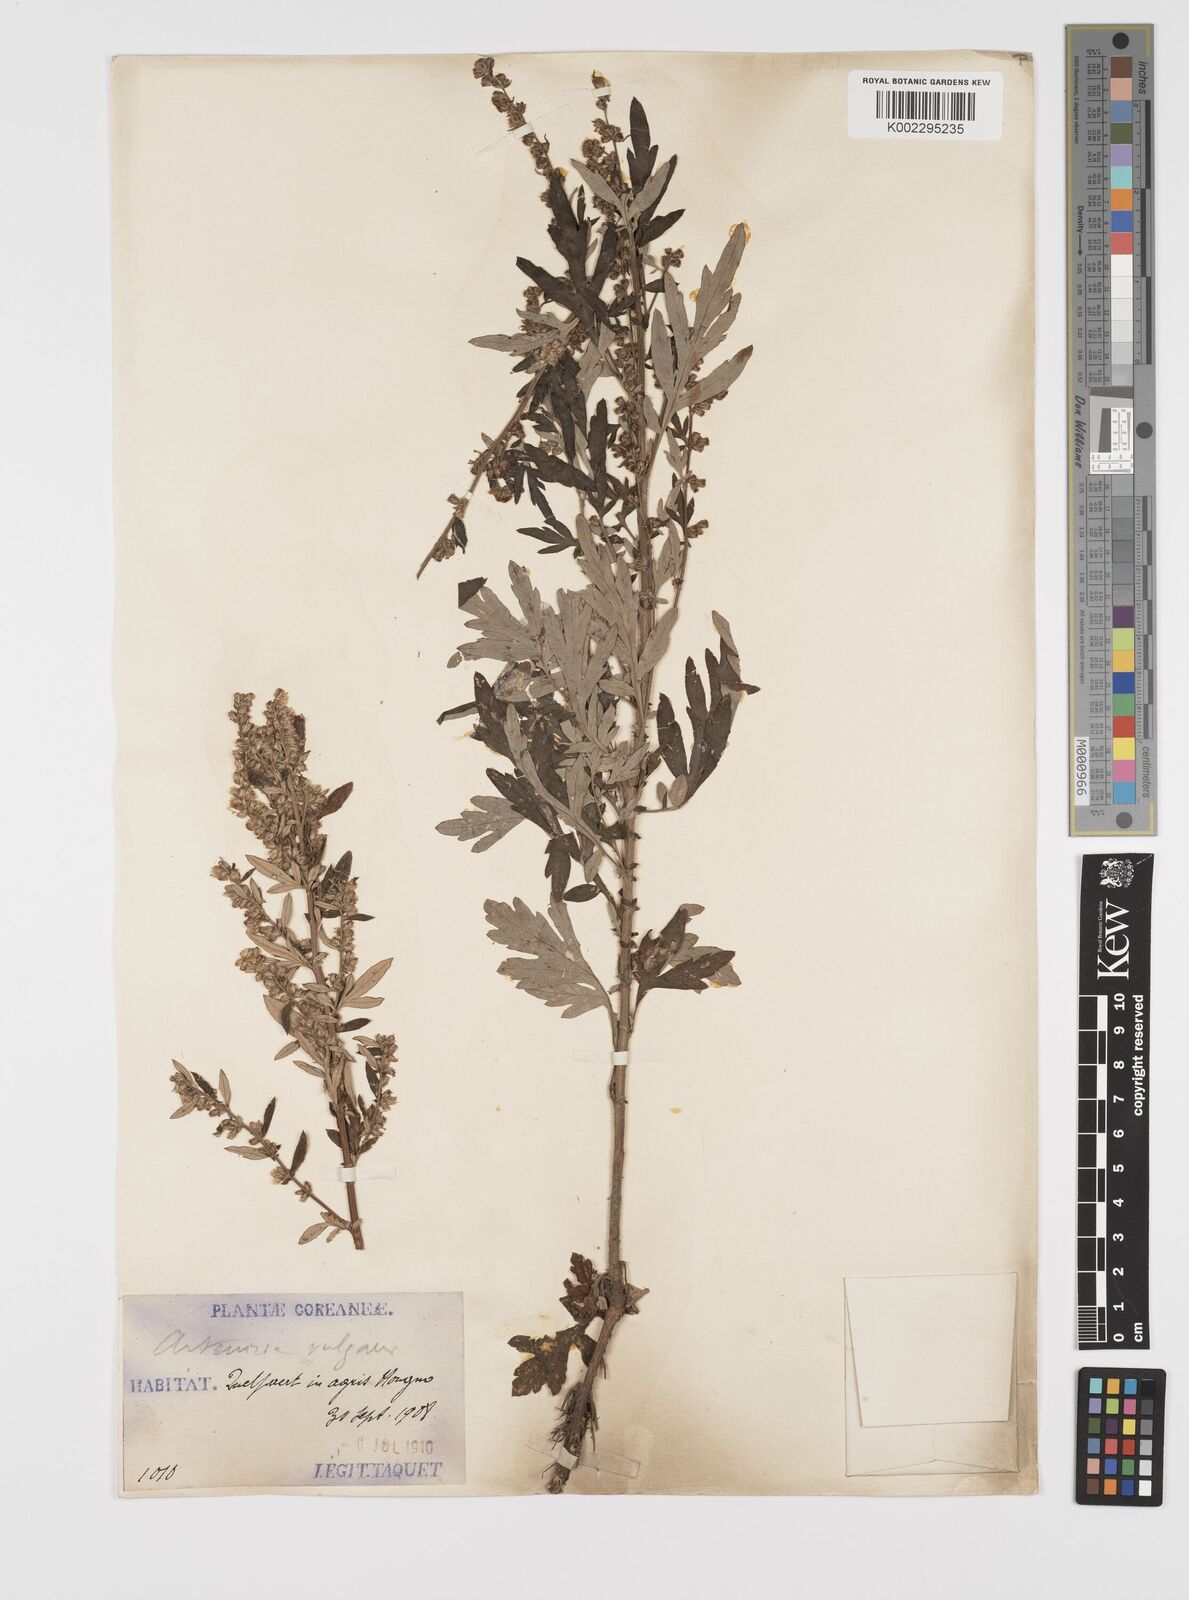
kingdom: Plantae
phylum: Tracheophyta
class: Magnoliopsida
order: Asterales
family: Asteraceae
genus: Artemisia
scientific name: Artemisia
